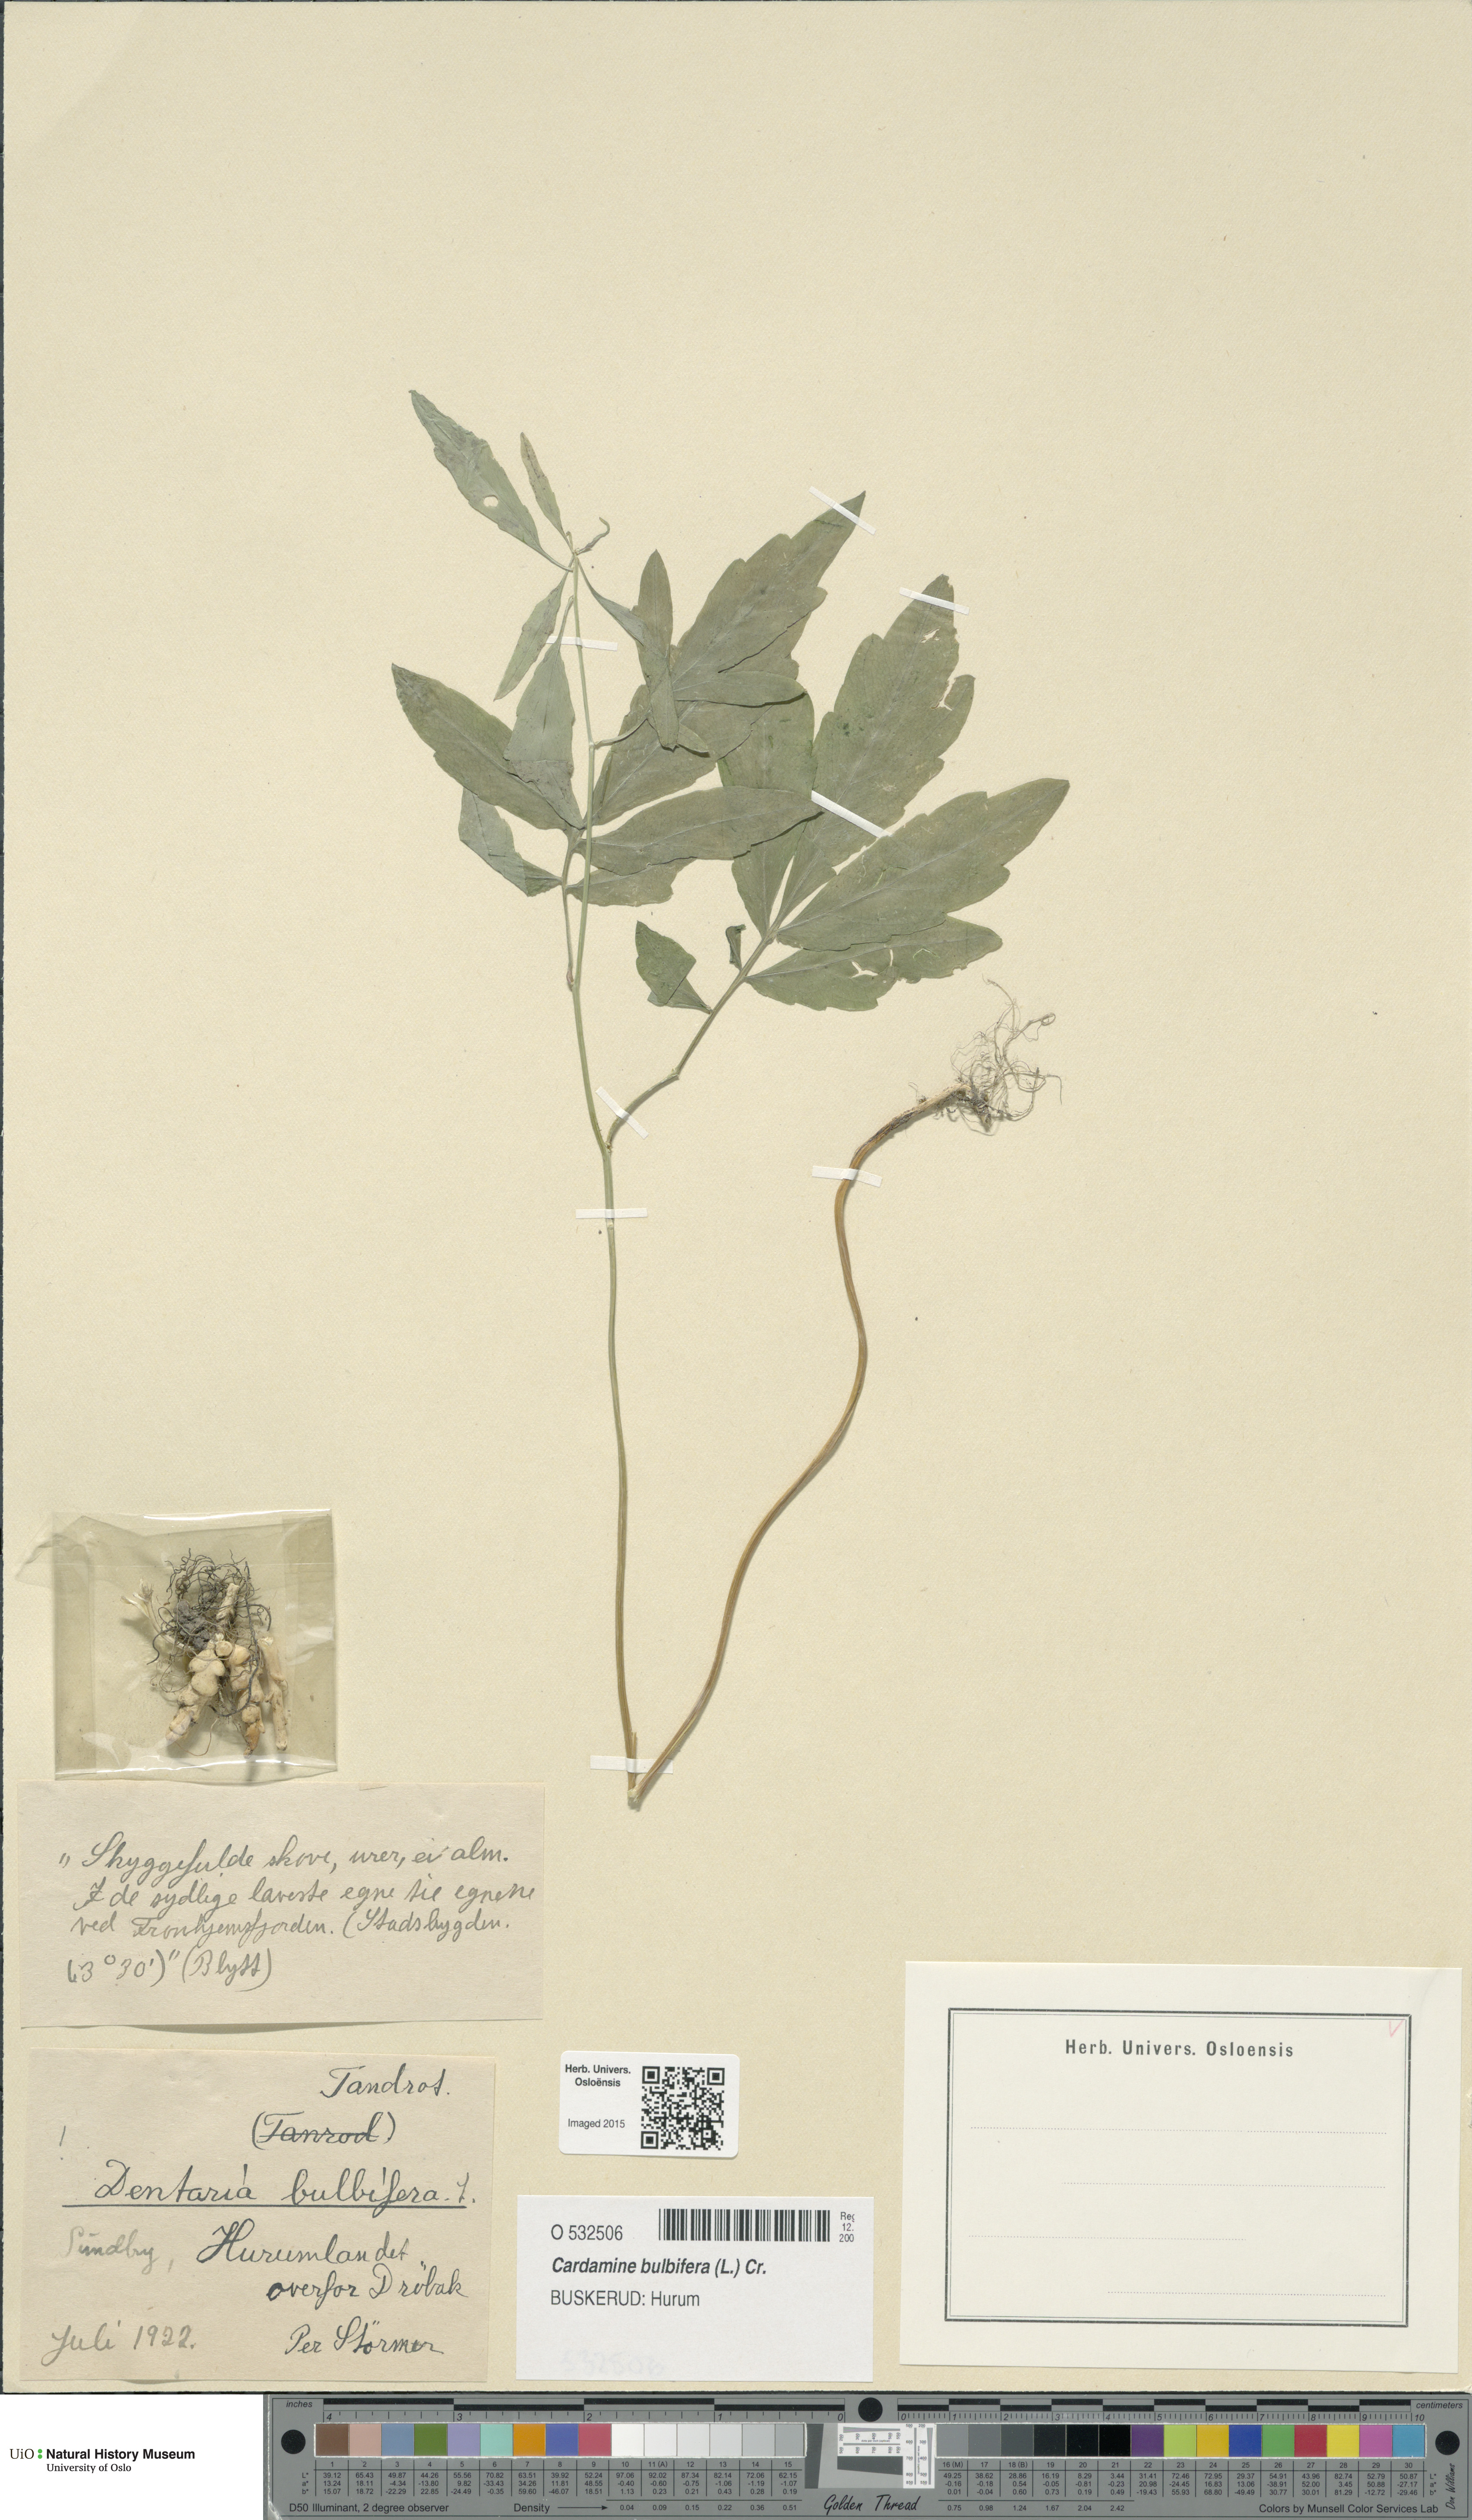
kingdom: Plantae
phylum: Tracheophyta
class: Magnoliopsida
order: Brassicales
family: Brassicaceae
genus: Cardamine
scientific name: Cardamine bulbifera
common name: Coralroot bittercress
